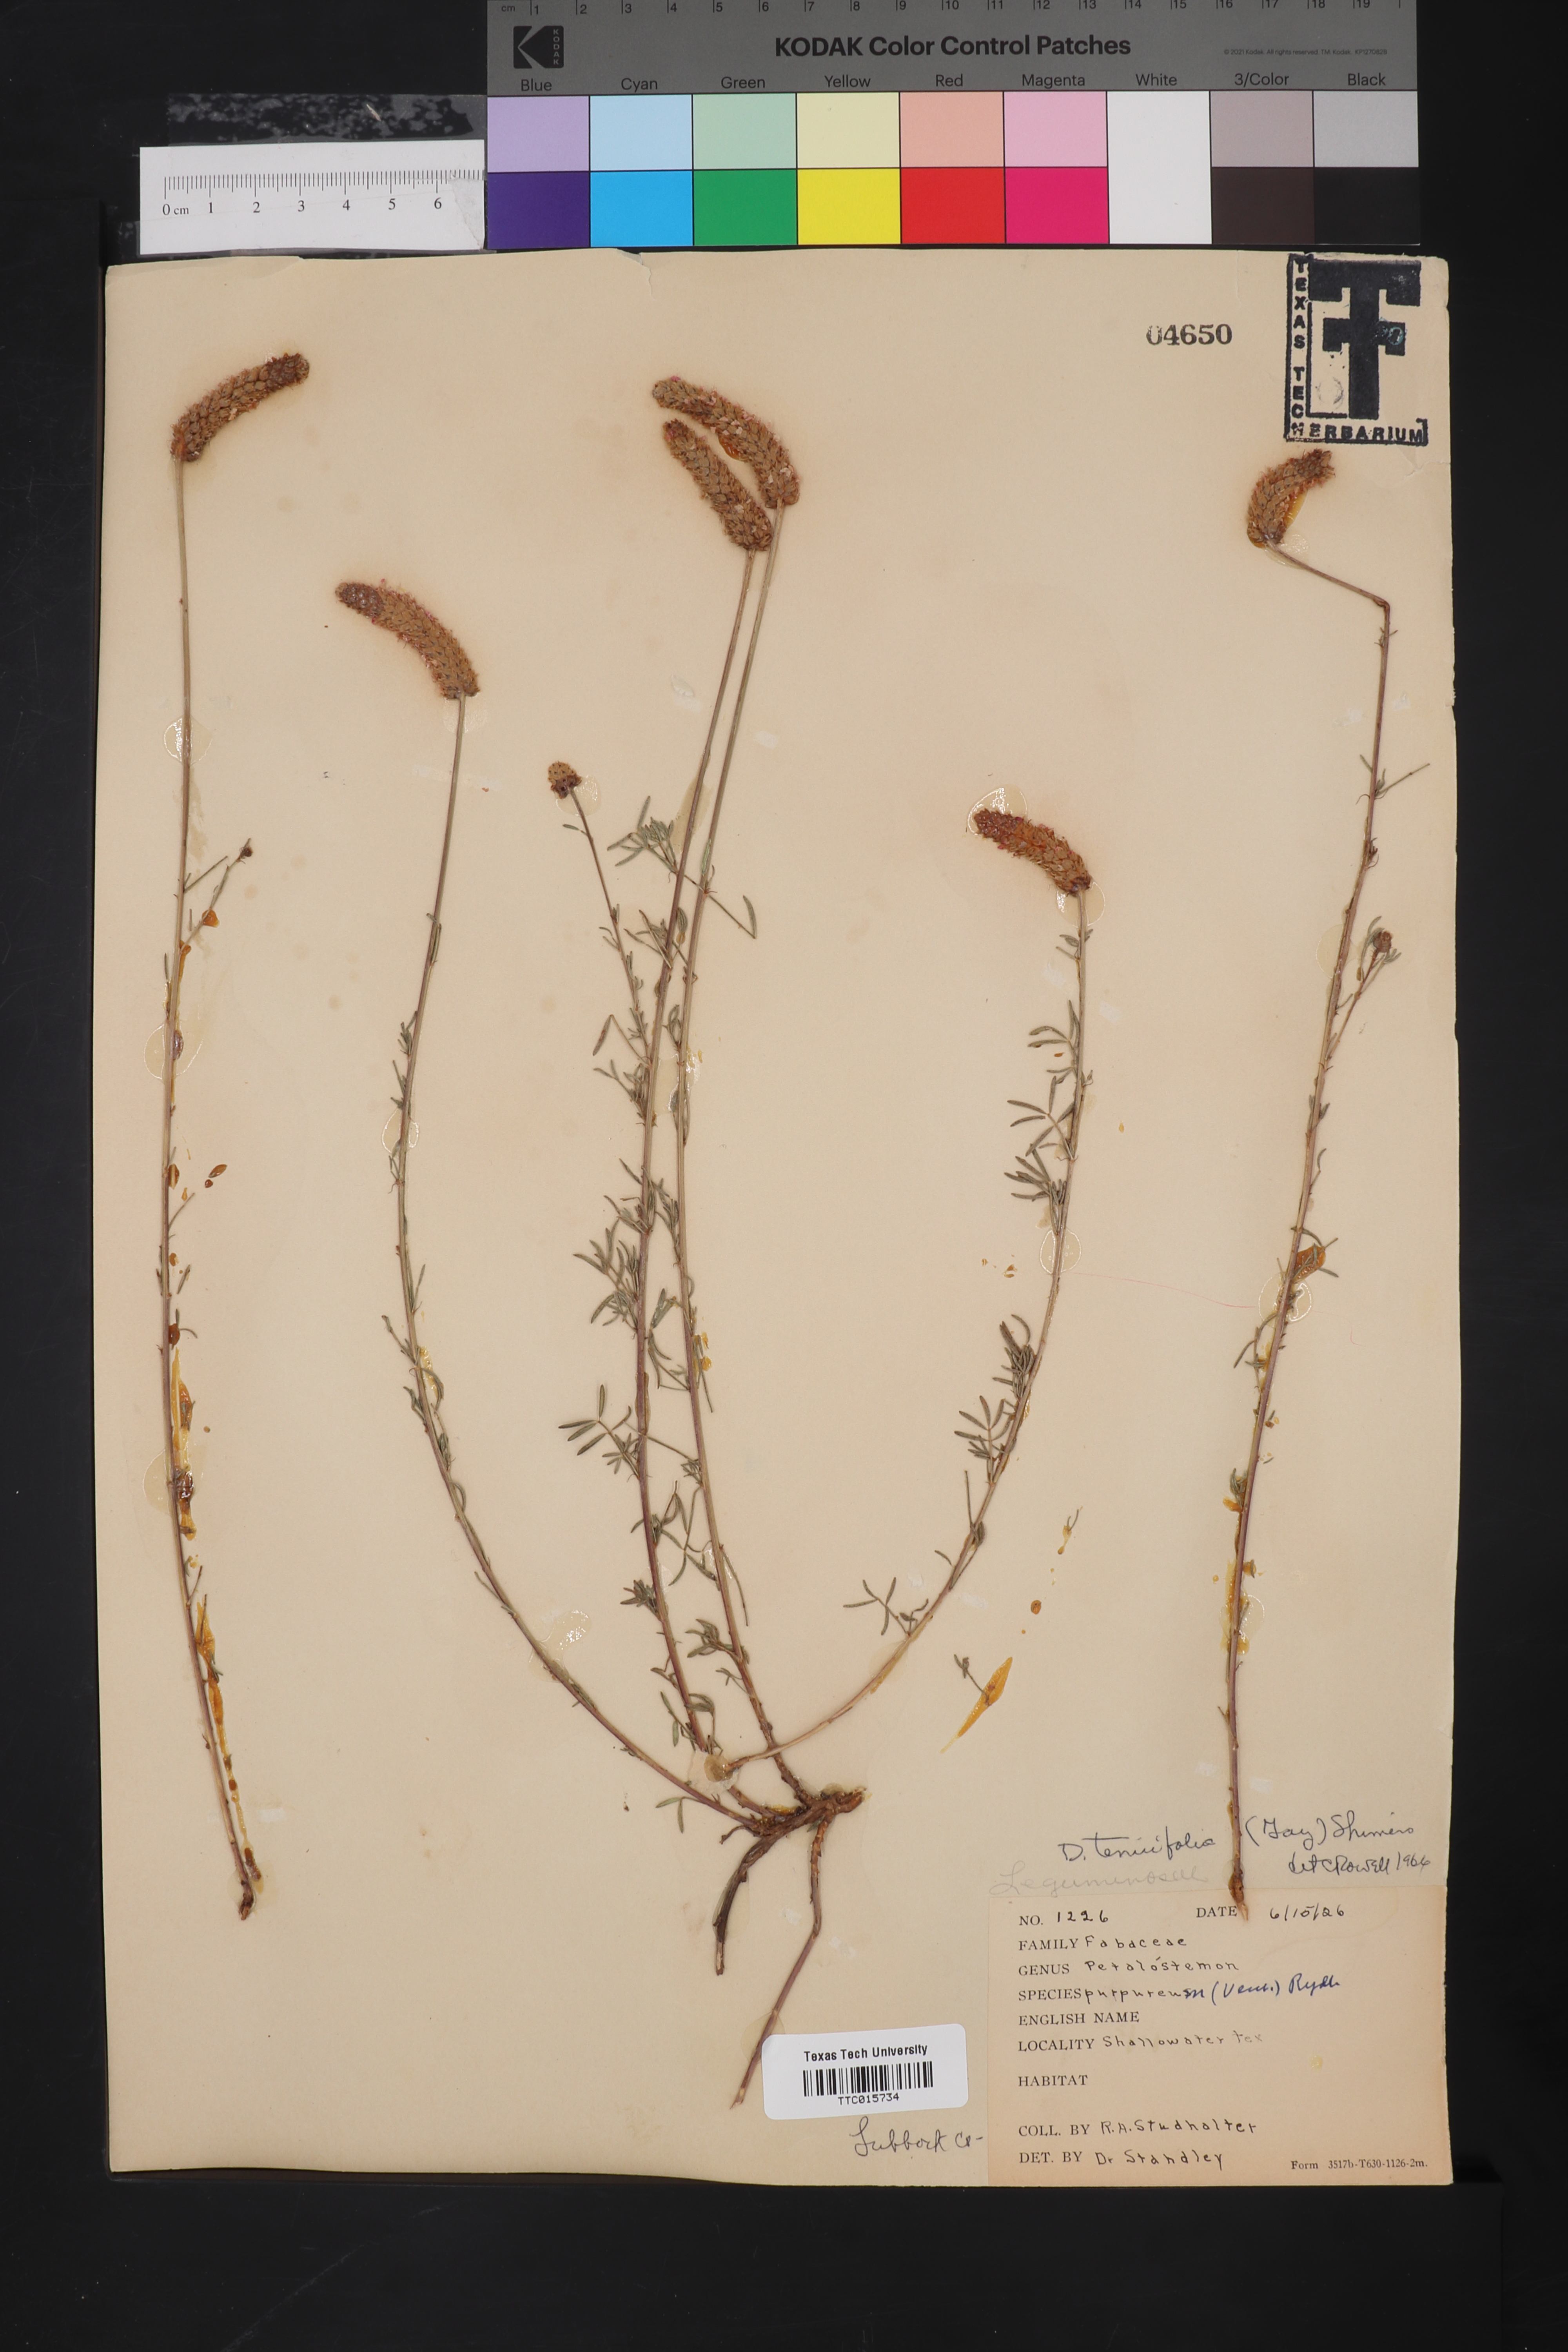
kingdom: Plantae
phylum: Tracheophyta
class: Magnoliopsida
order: Fabales
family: Fabaceae
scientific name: Fabaceae
